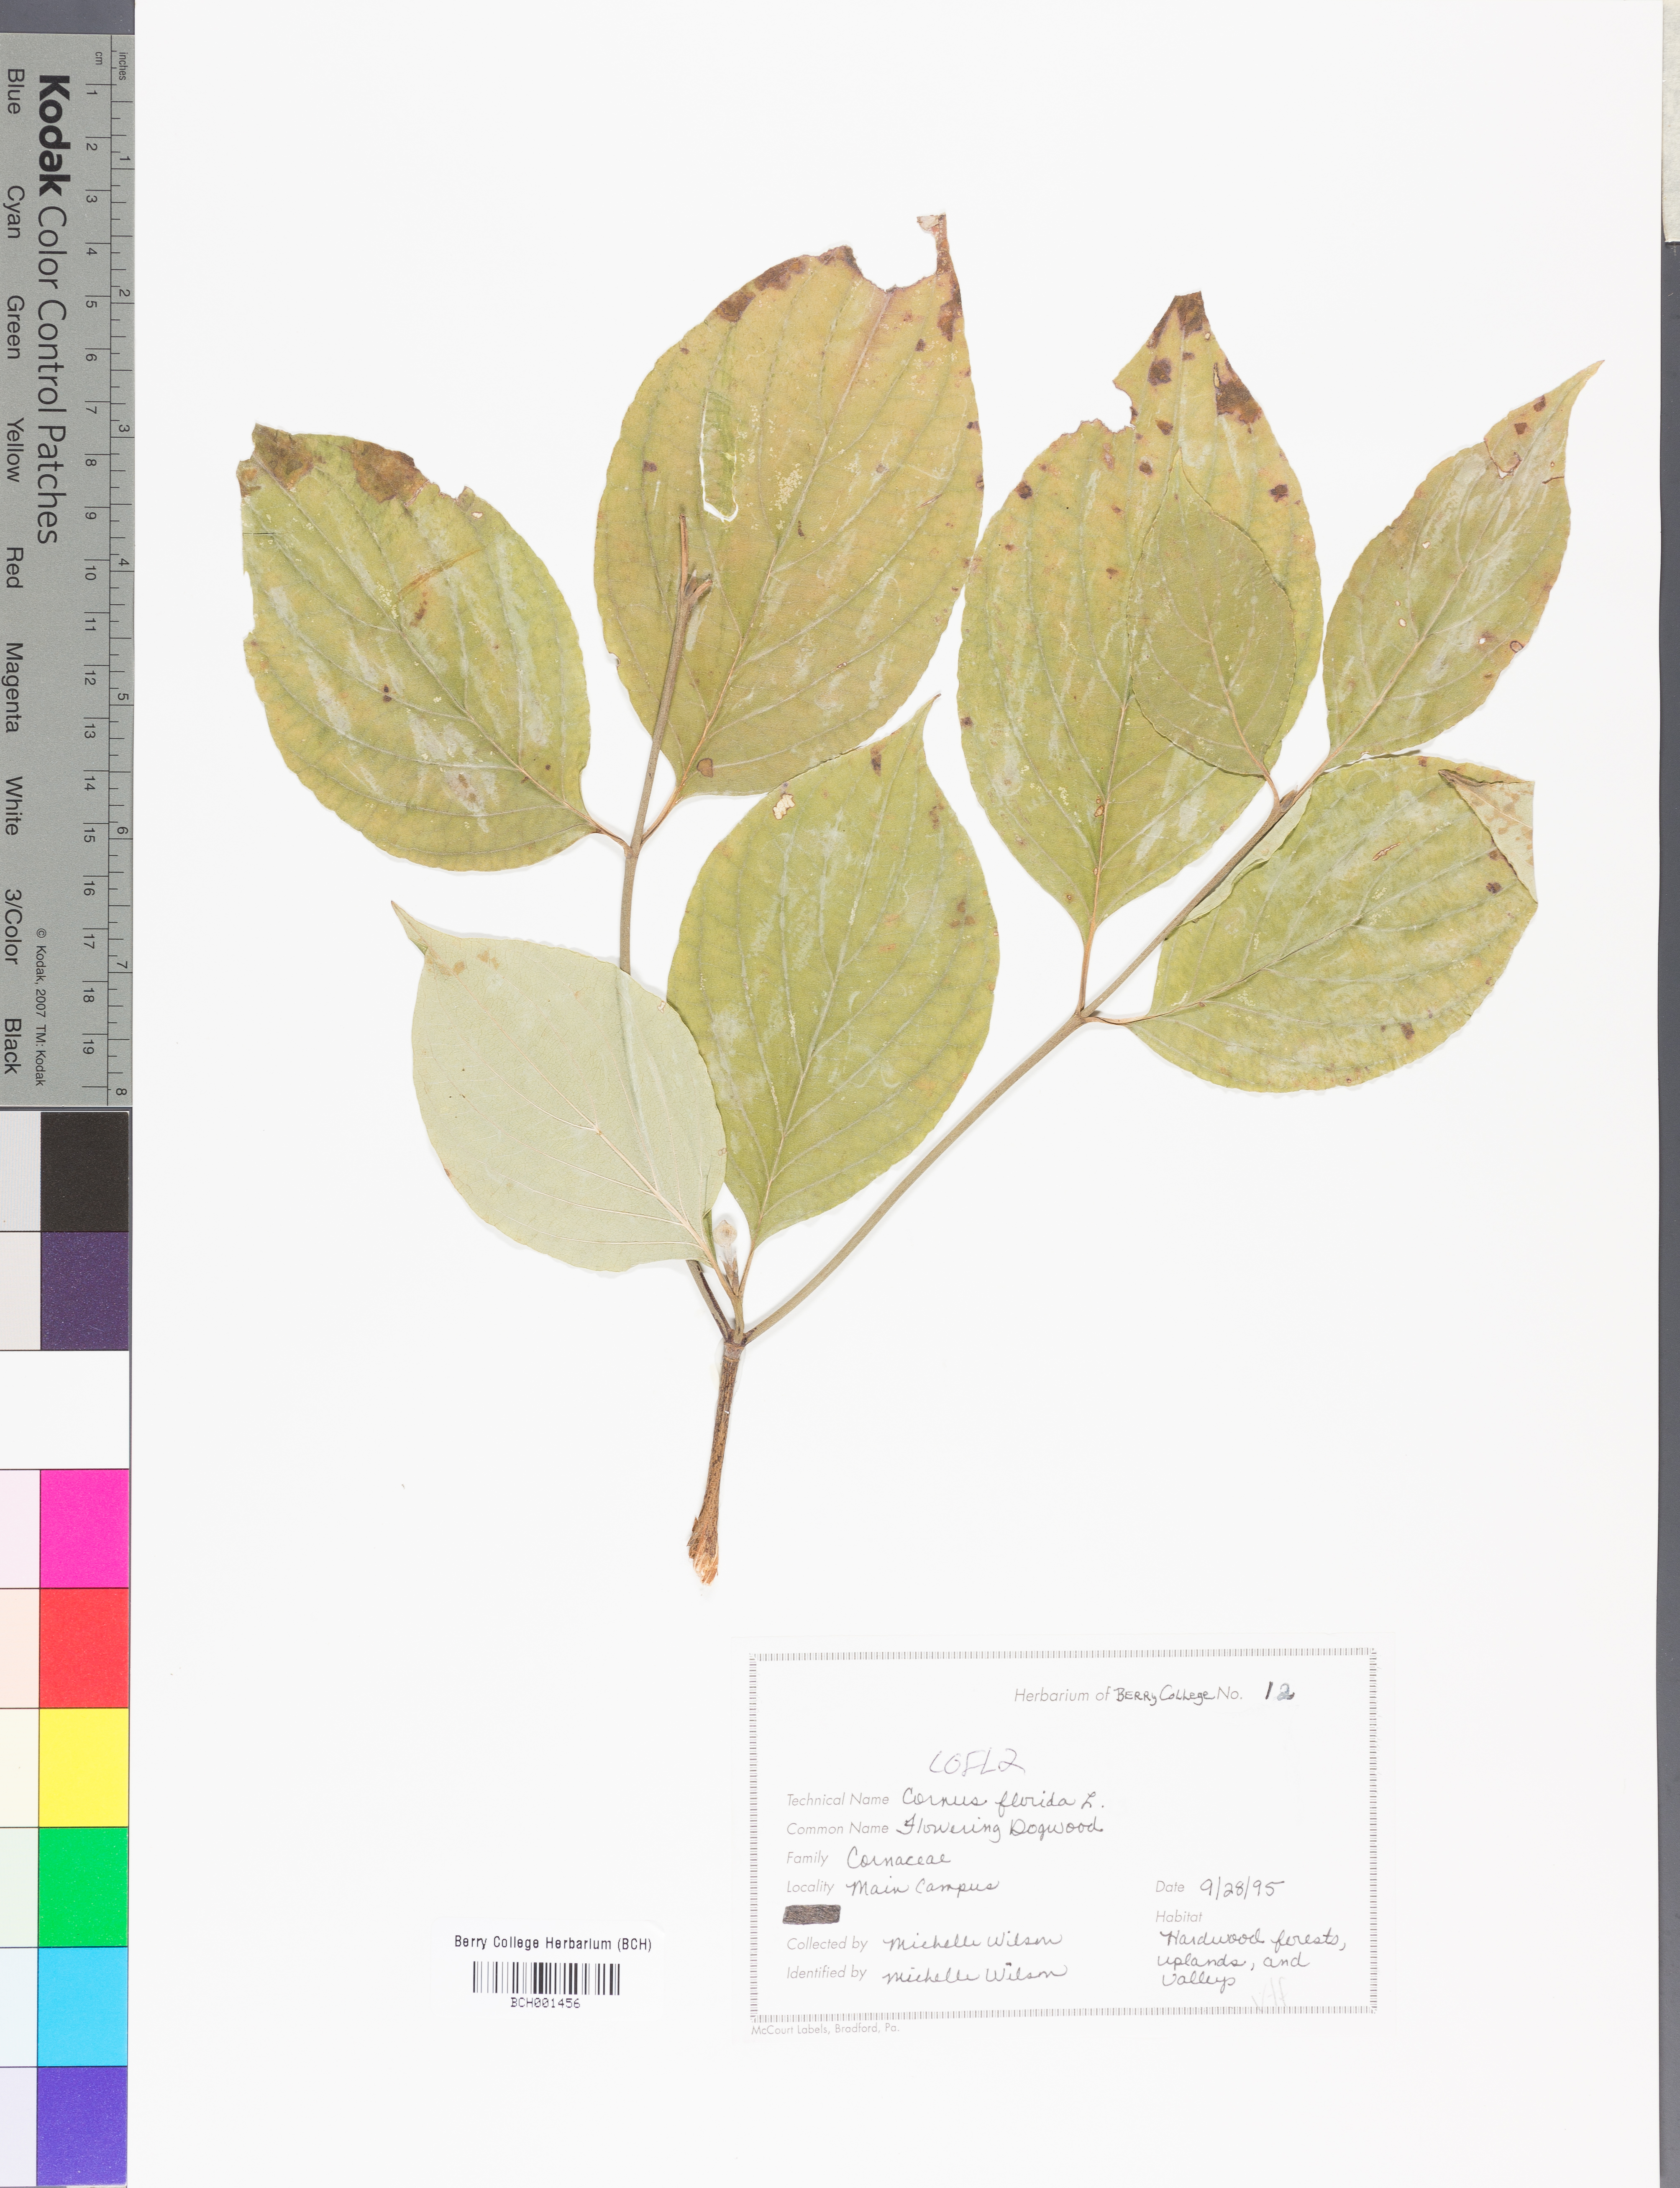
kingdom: Plantae
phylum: Tracheophyta
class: Magnoliopsida
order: Cornales
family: Cornaceae
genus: Cornus
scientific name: Cornus florida
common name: Flowering dogwood
